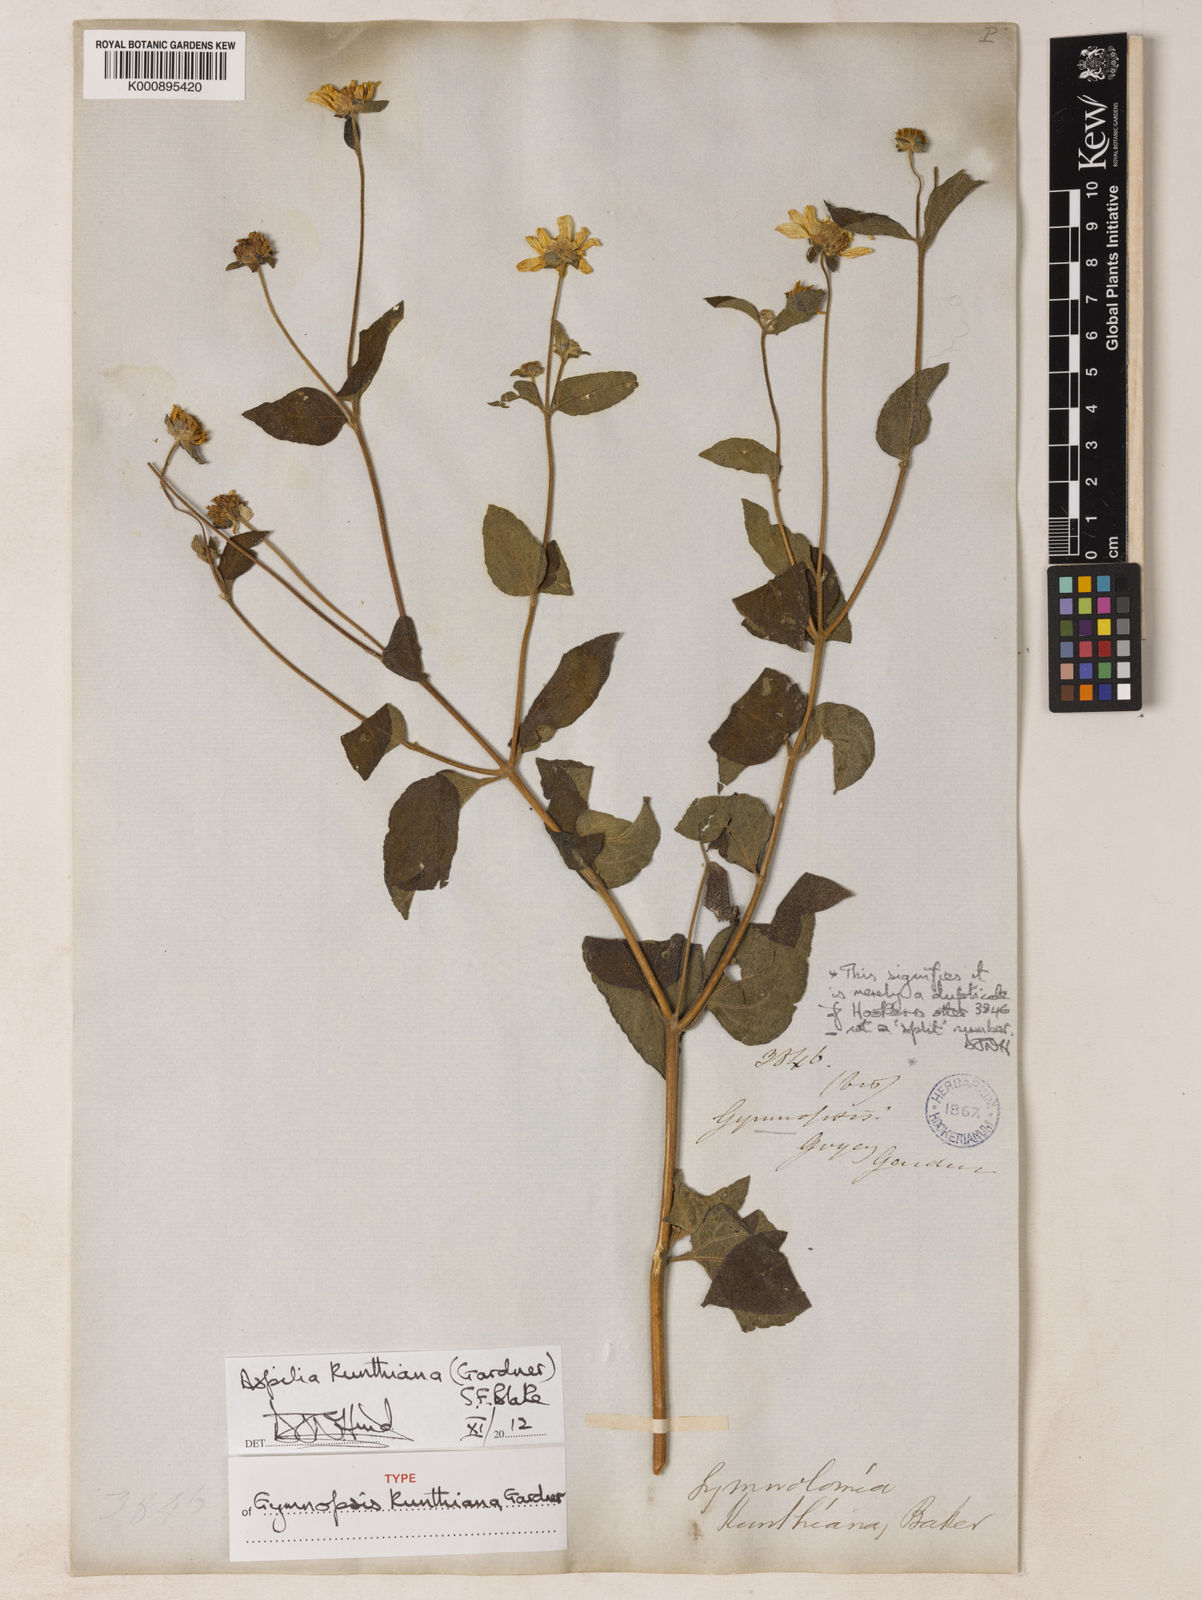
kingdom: Plantae
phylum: Tracheophyta
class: Magnoliopsida
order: Asterales
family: Asteraceae
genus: Aspilia
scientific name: Aspilia kunthiana
